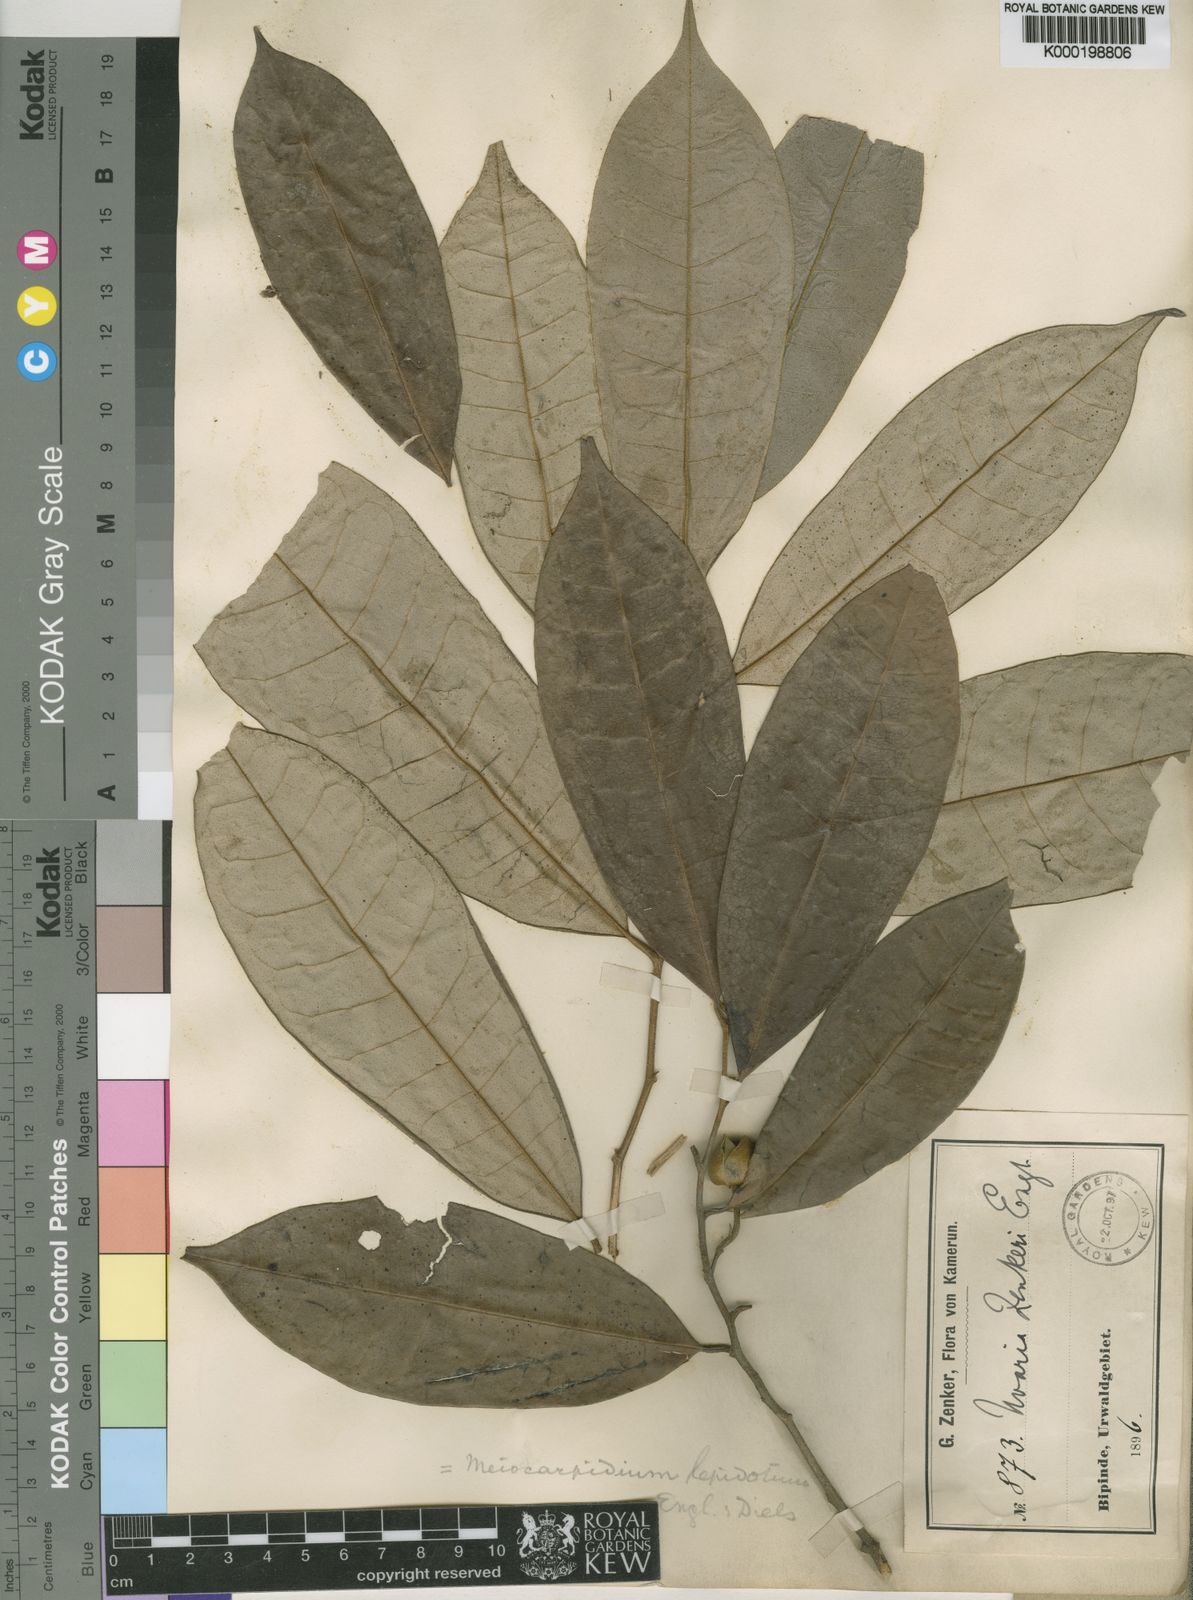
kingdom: Plantae
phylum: Tracheophyta
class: Magnoliopsida
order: Magnoliales
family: Annonaceae
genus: Meiocarpidium
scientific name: Meiocarpidium lepidotum
